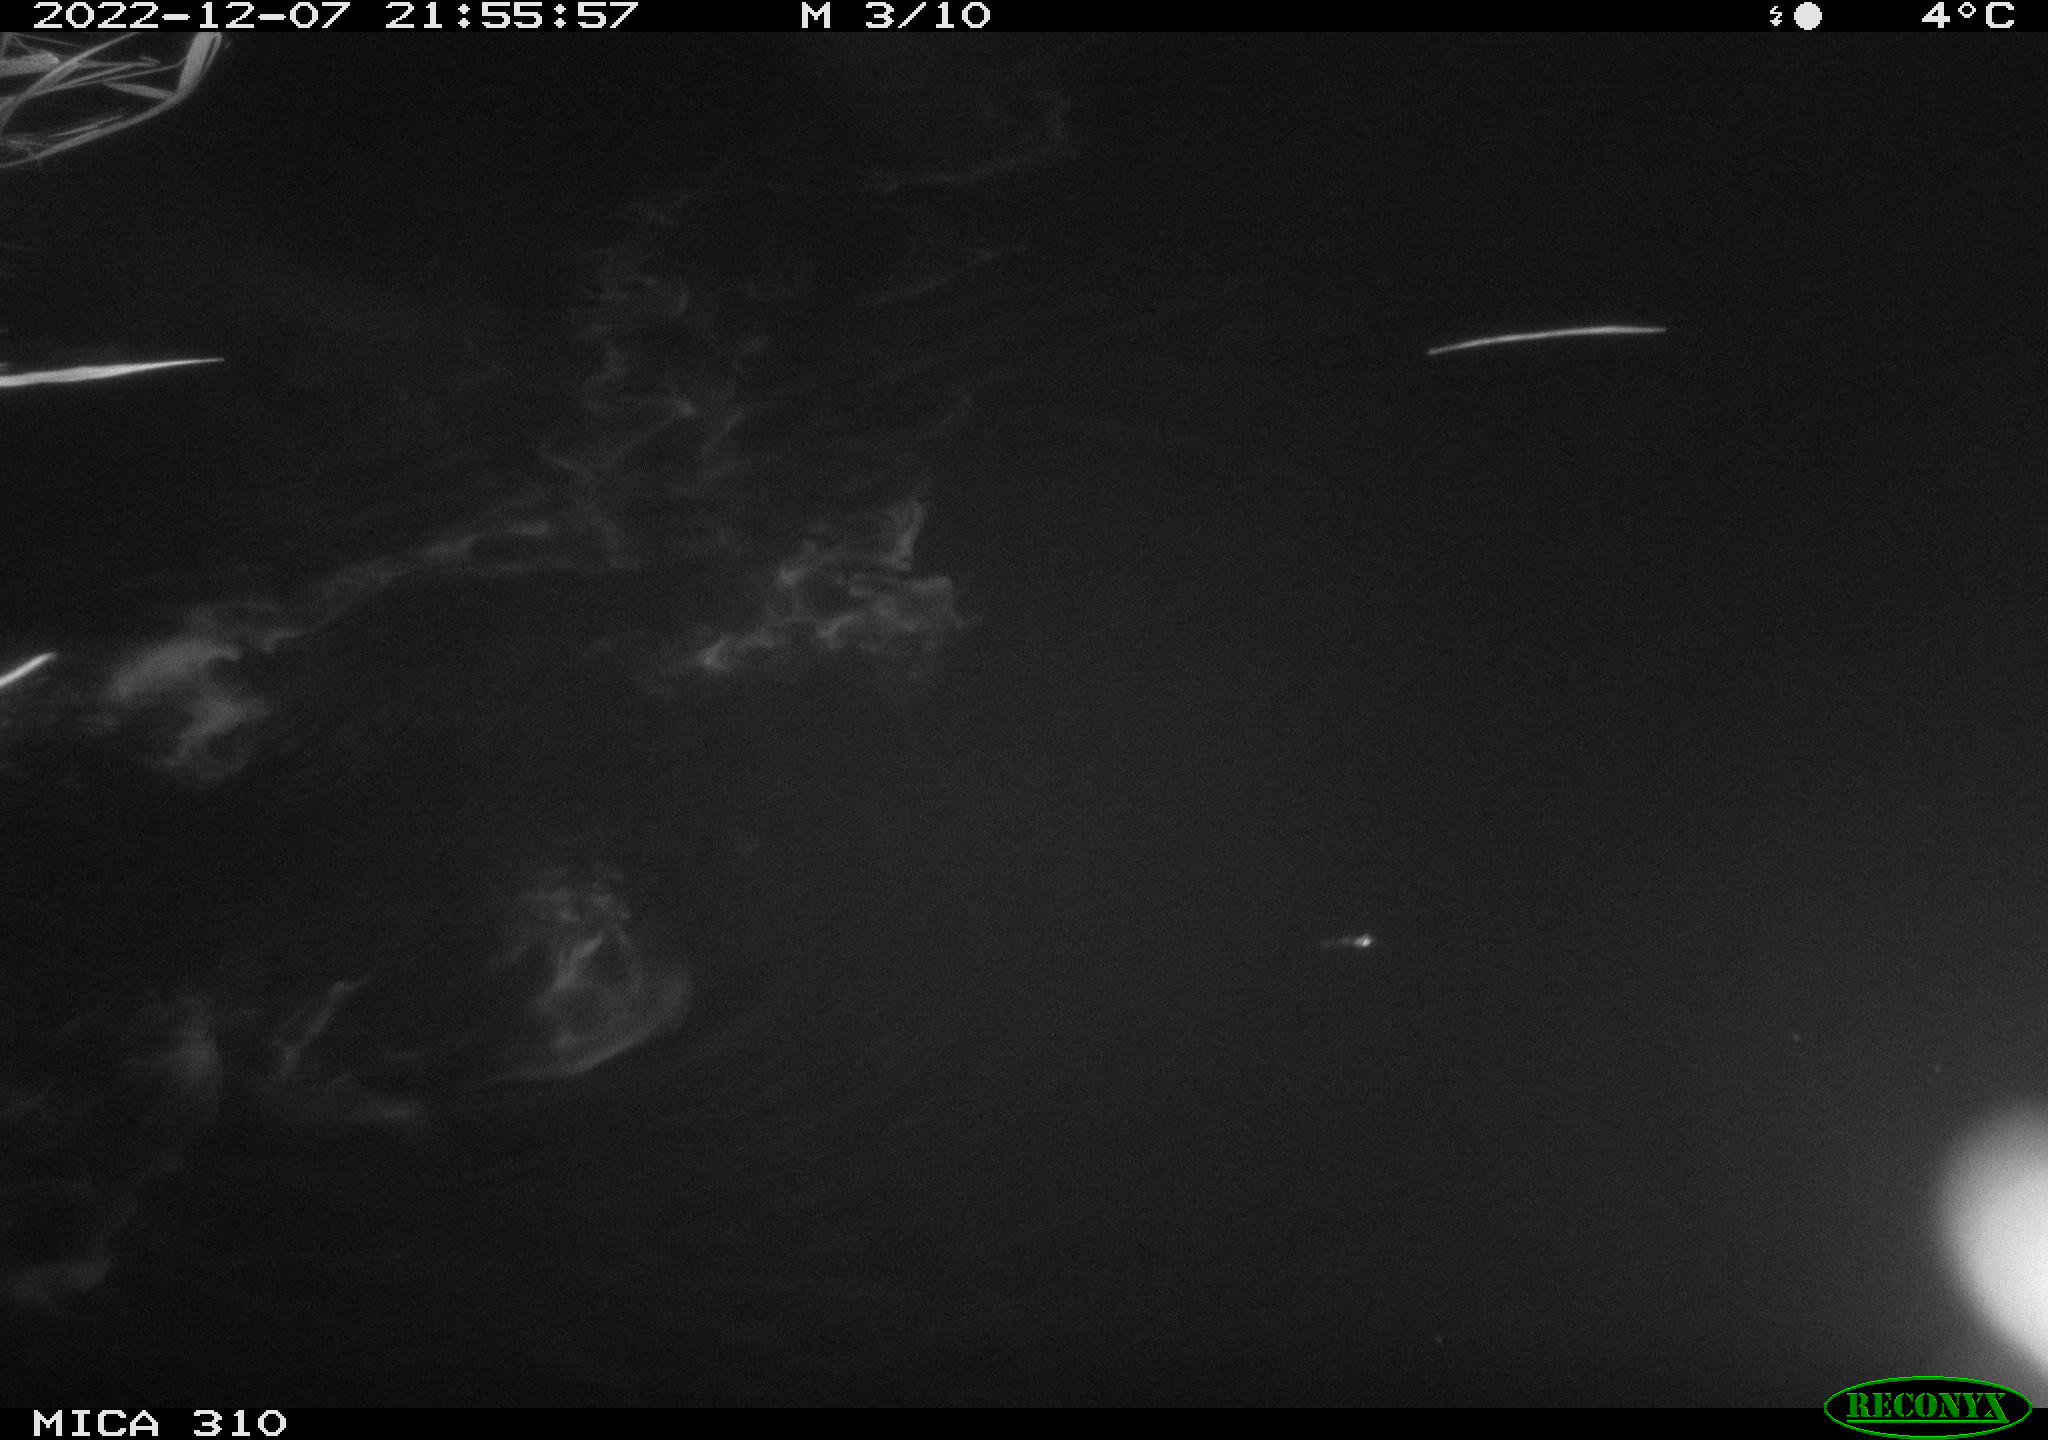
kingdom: Animalia
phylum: Chordata
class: Mammalia
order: Rodentia
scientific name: Rodentia
